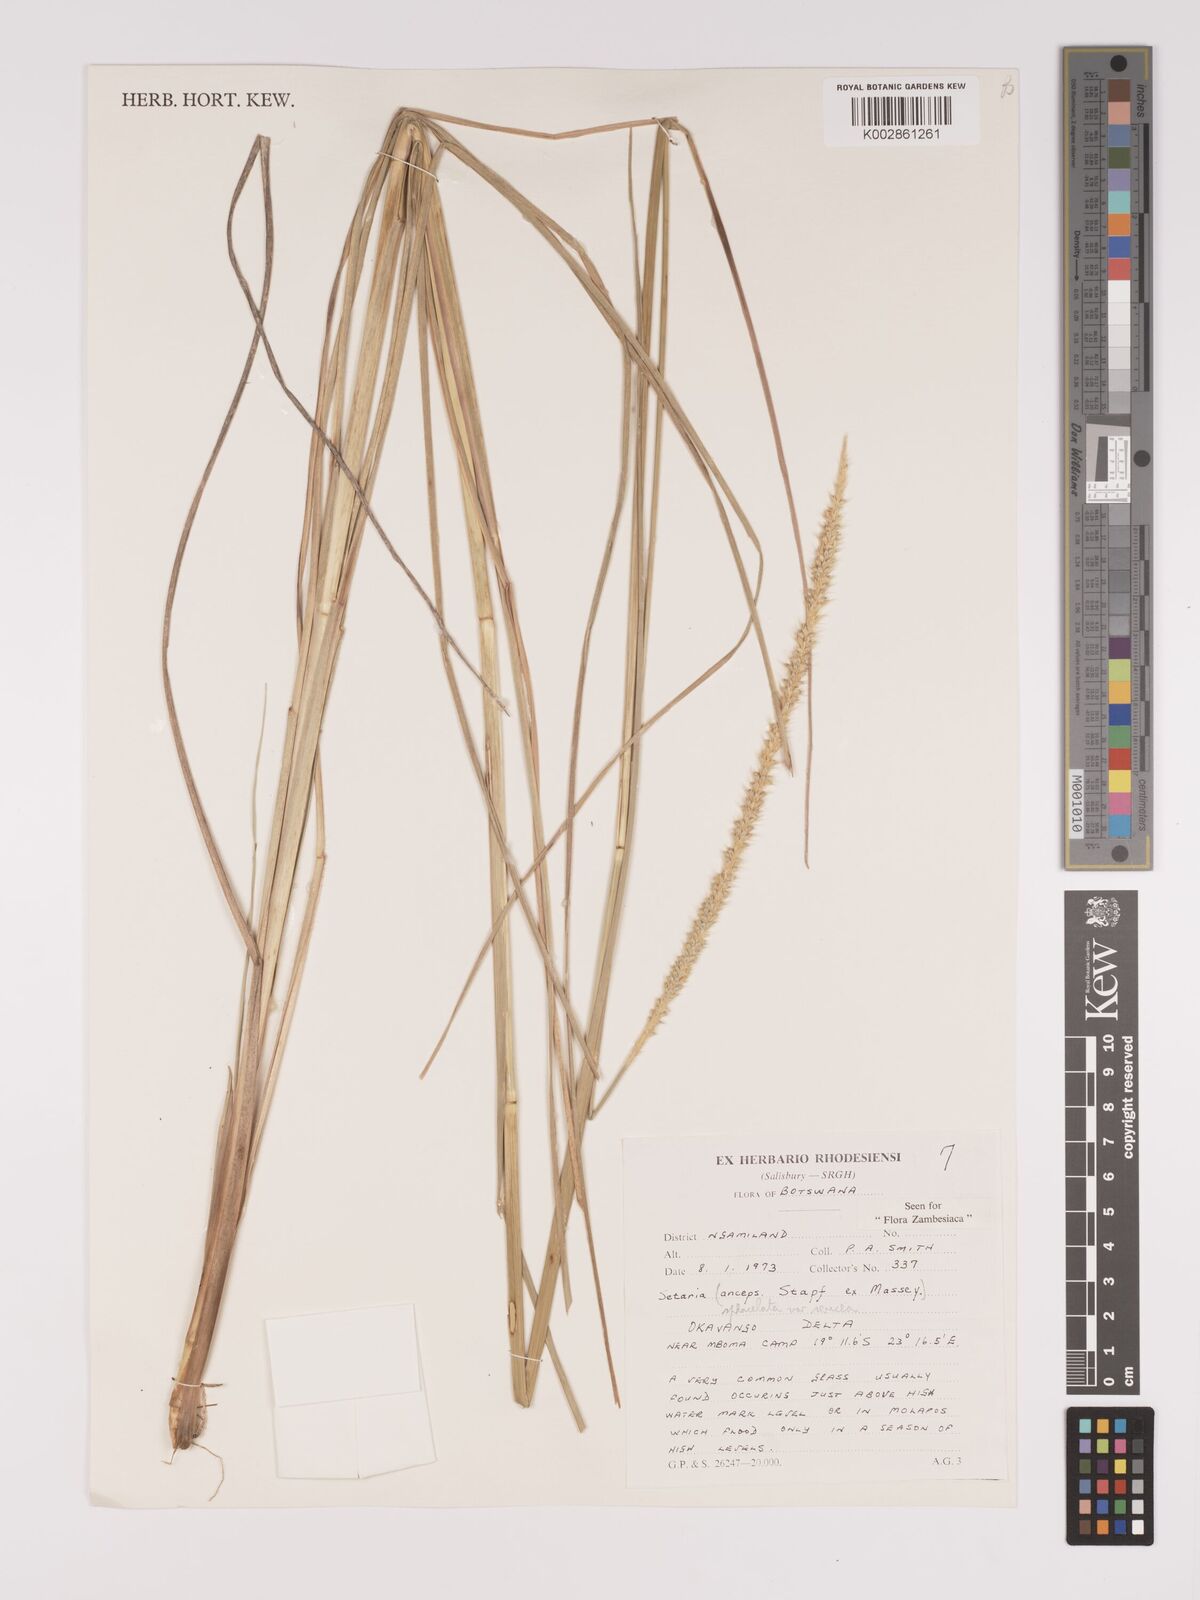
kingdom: Plantae
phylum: Tracheophyta
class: Liliopsida
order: Poales
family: Poaceae
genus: Setaria
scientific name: Setaria sphacelata
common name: African bristlegrass
